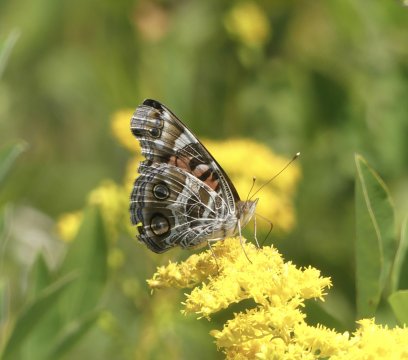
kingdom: Animalia
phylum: Arthropoda
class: Insecta
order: Lepidoptera
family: Nymphalidae
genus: Vanessa
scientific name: Vanessa virginiensis
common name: American Lady
